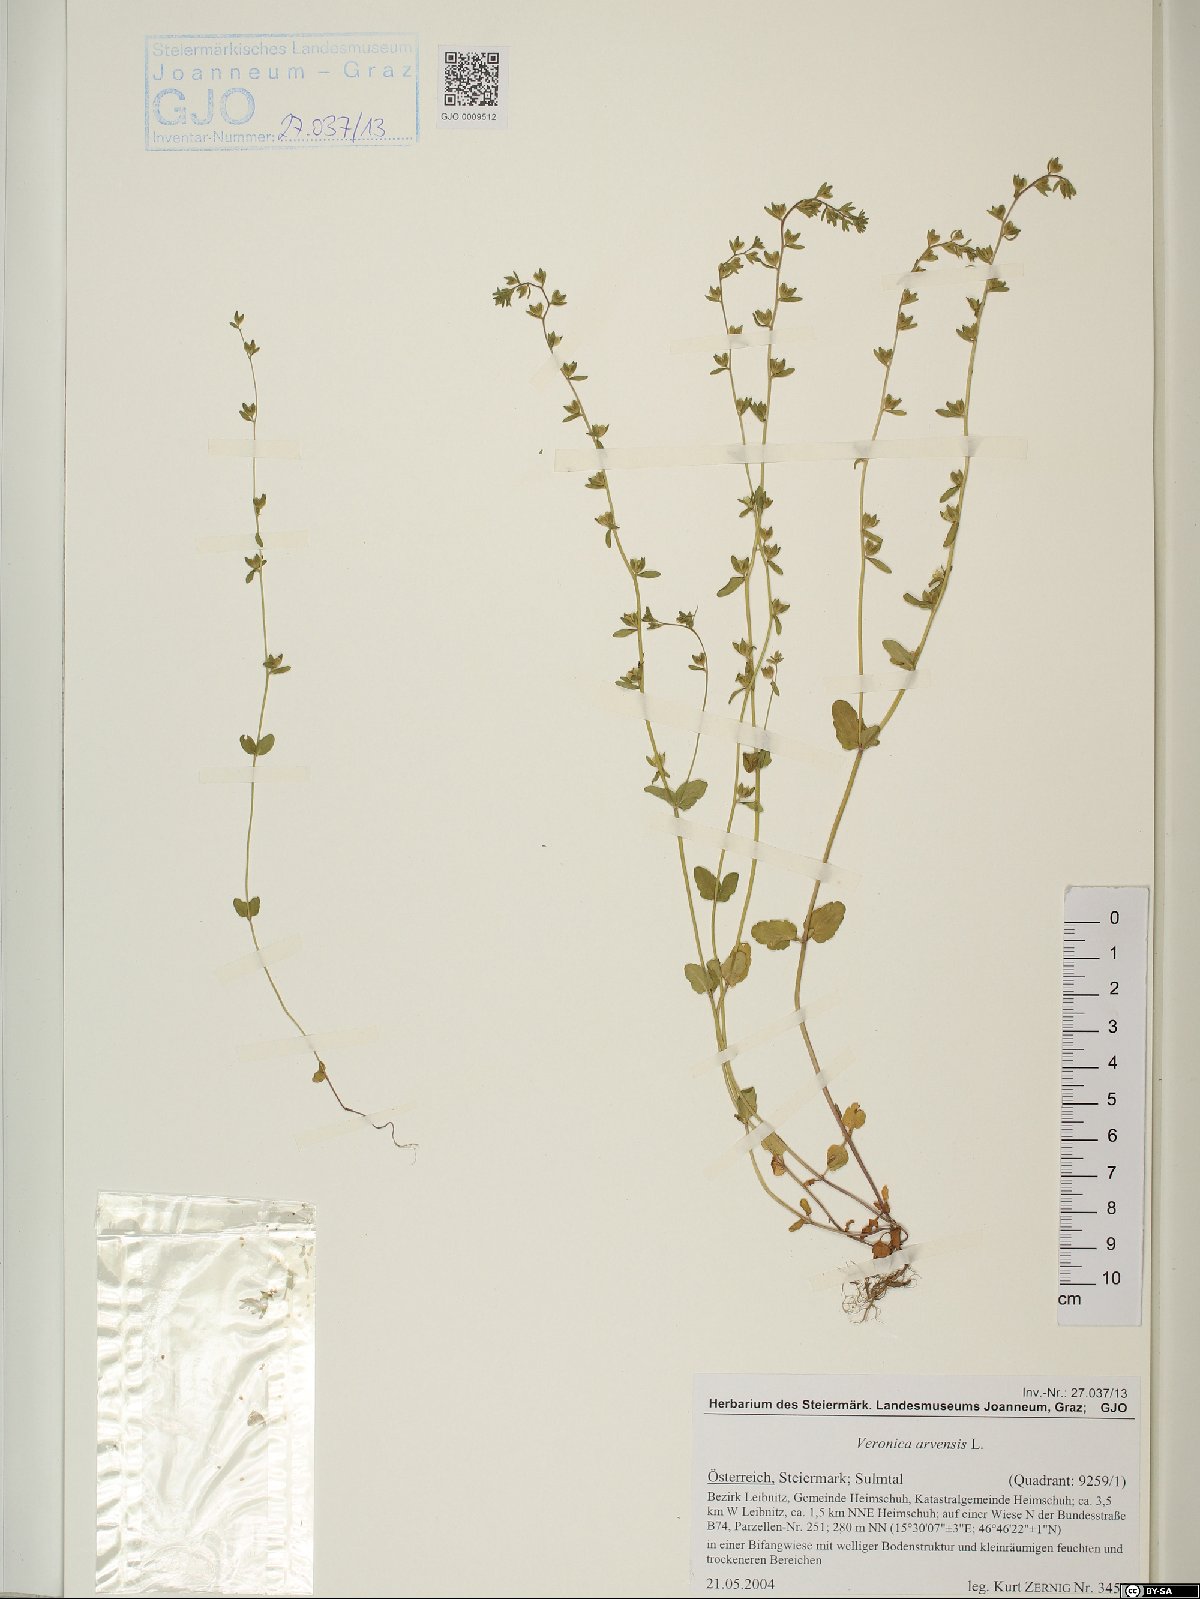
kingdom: Plantae
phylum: Tracheophyta
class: Magnoliopsida
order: Lamiales
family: Plantaginaceae
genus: Veronica
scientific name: Veronica arvensis
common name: Corn speedwell
